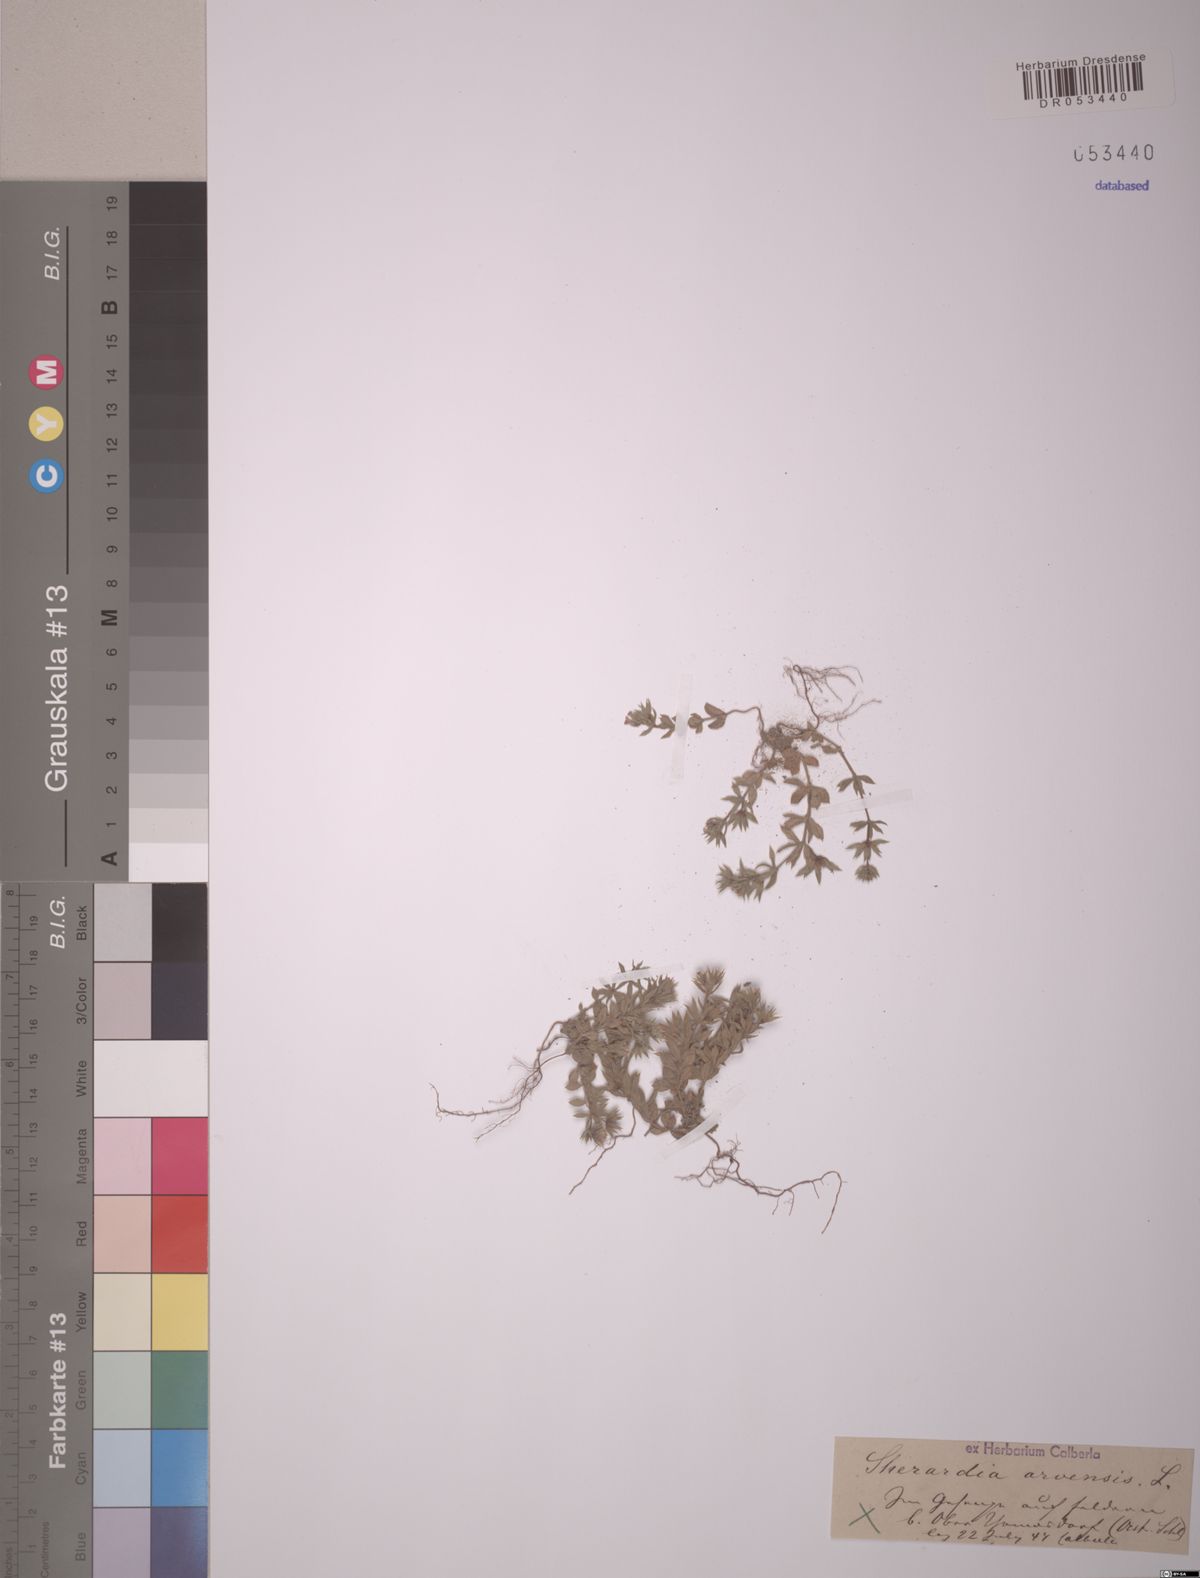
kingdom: Plantae
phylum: Tracheophyta
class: Magnoliopsida
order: Gentianales
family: Rubiaceae
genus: Sherardia
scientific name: Sherardia arvensis
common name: Field madder
